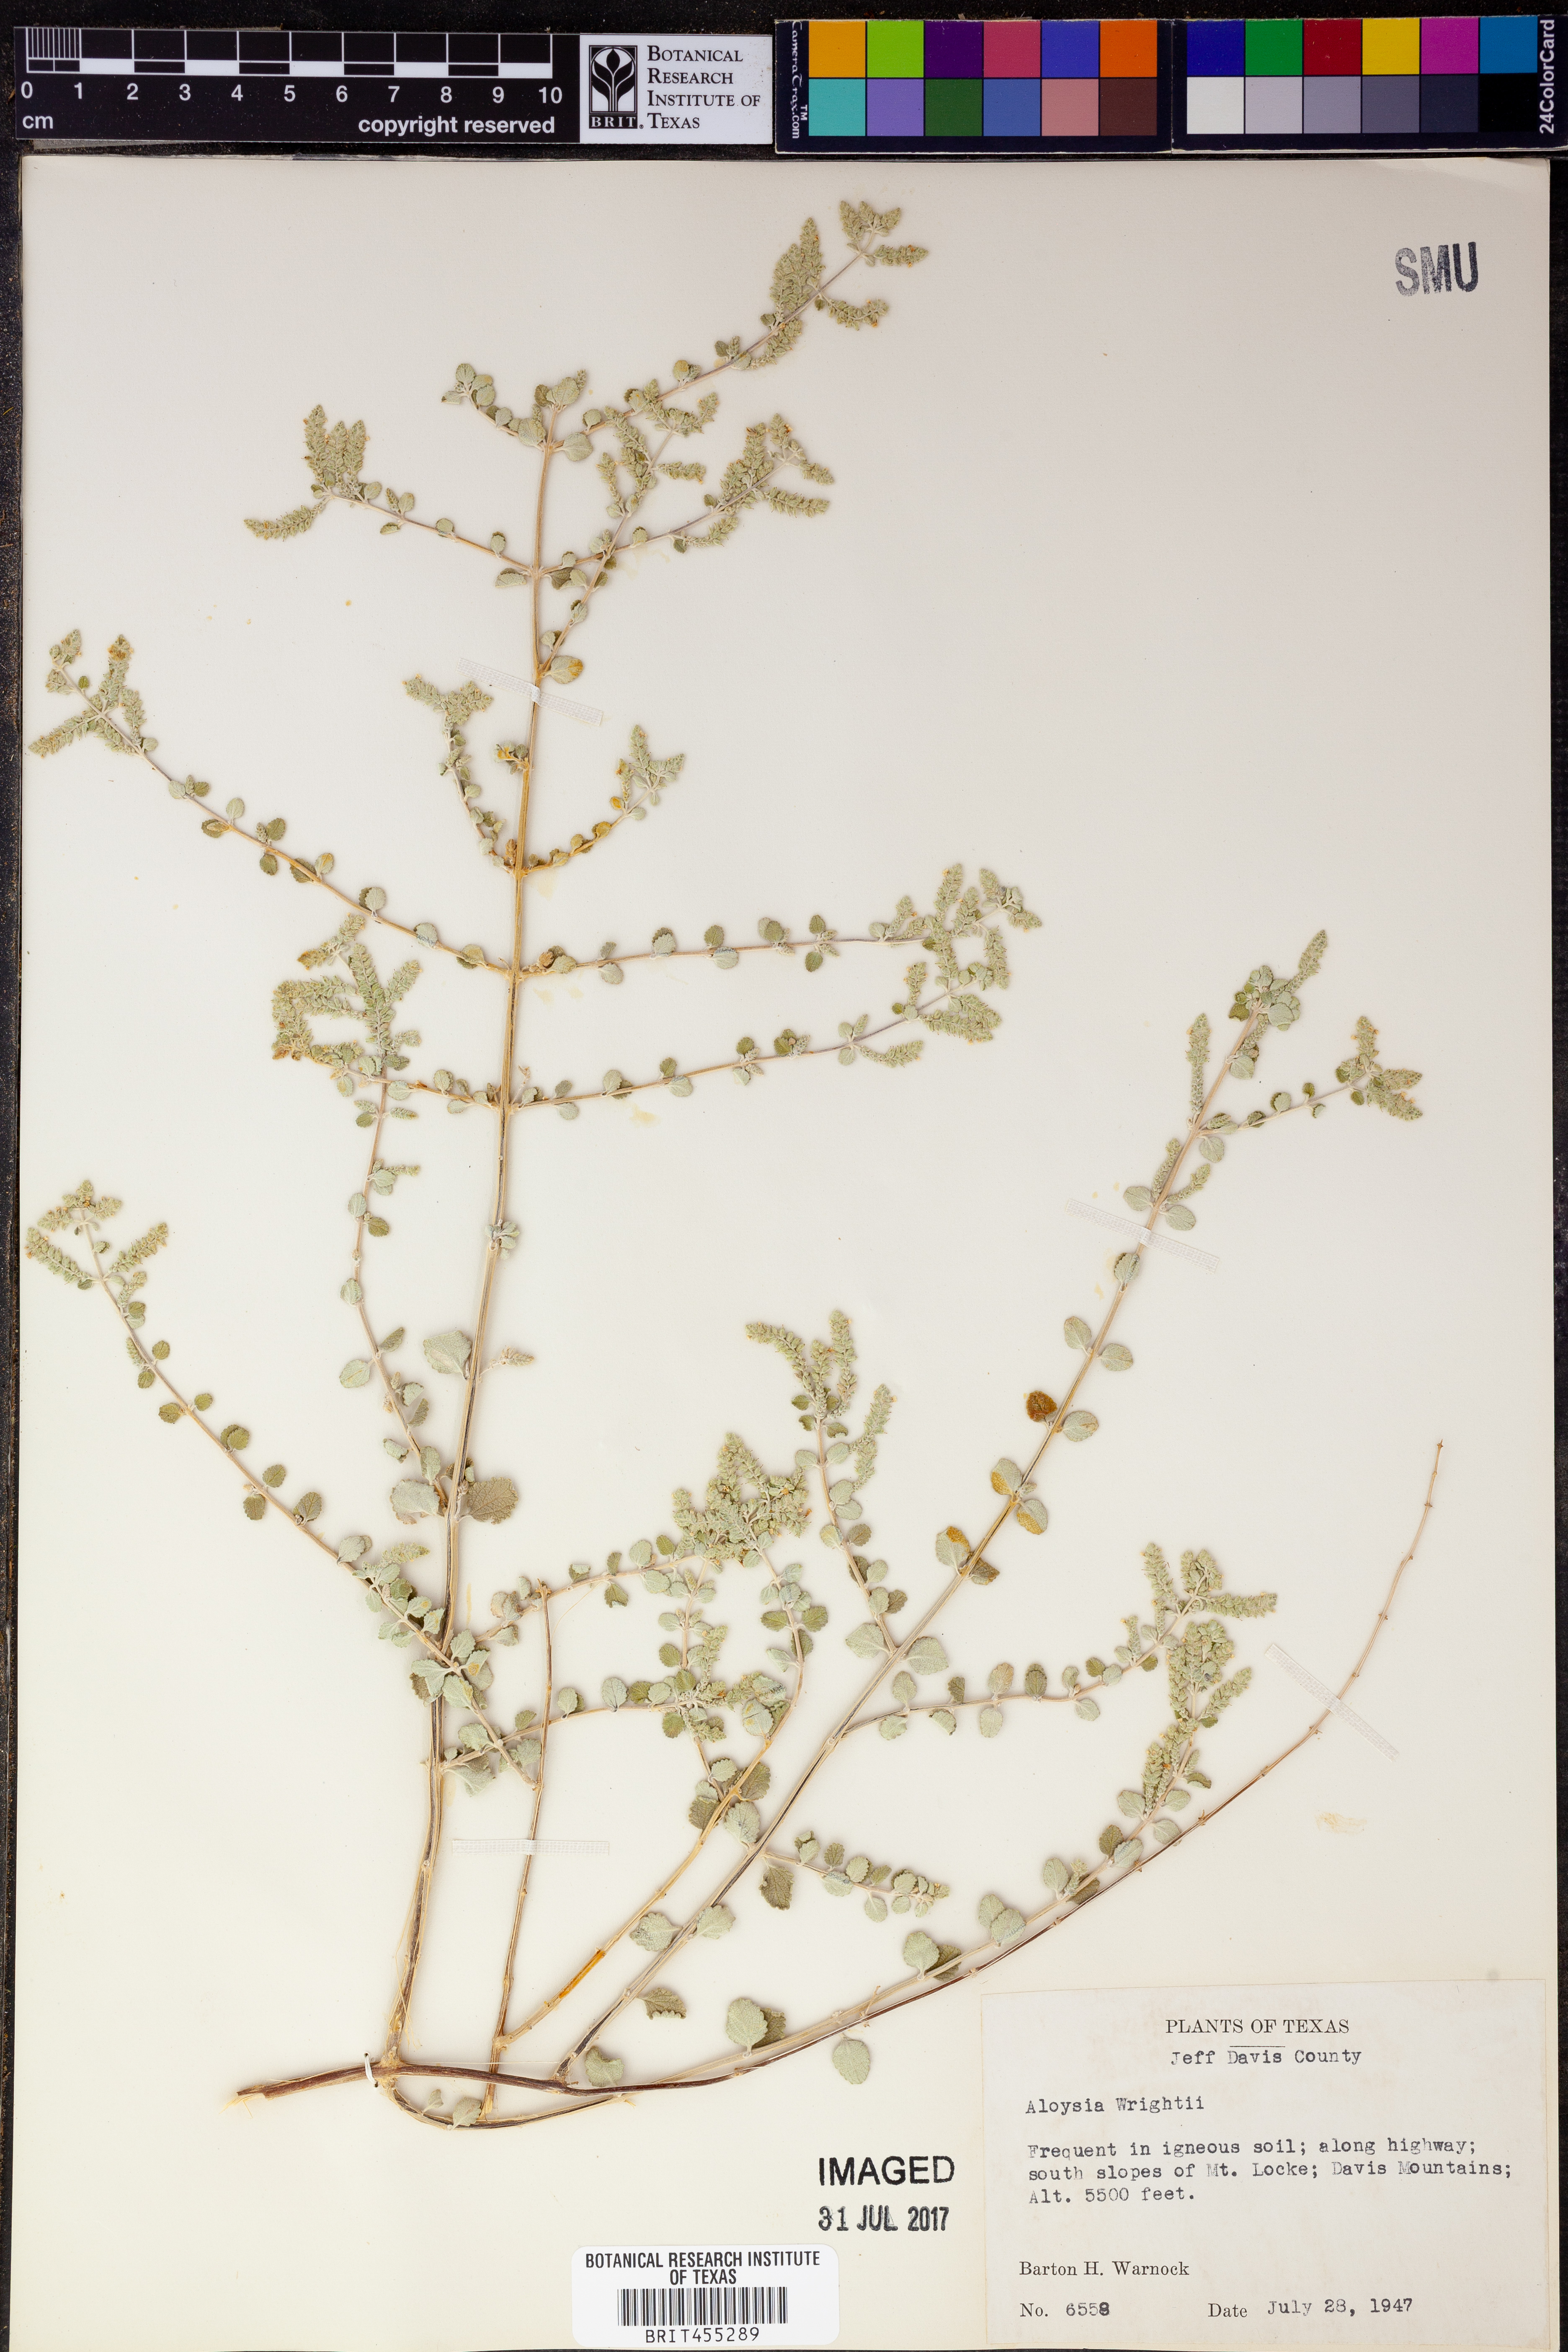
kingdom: Plantae
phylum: Tracheophyta
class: Magnoliopsida
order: Lamiales
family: Verbenaceae
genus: Aloysia
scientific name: Aloysia wrightii
